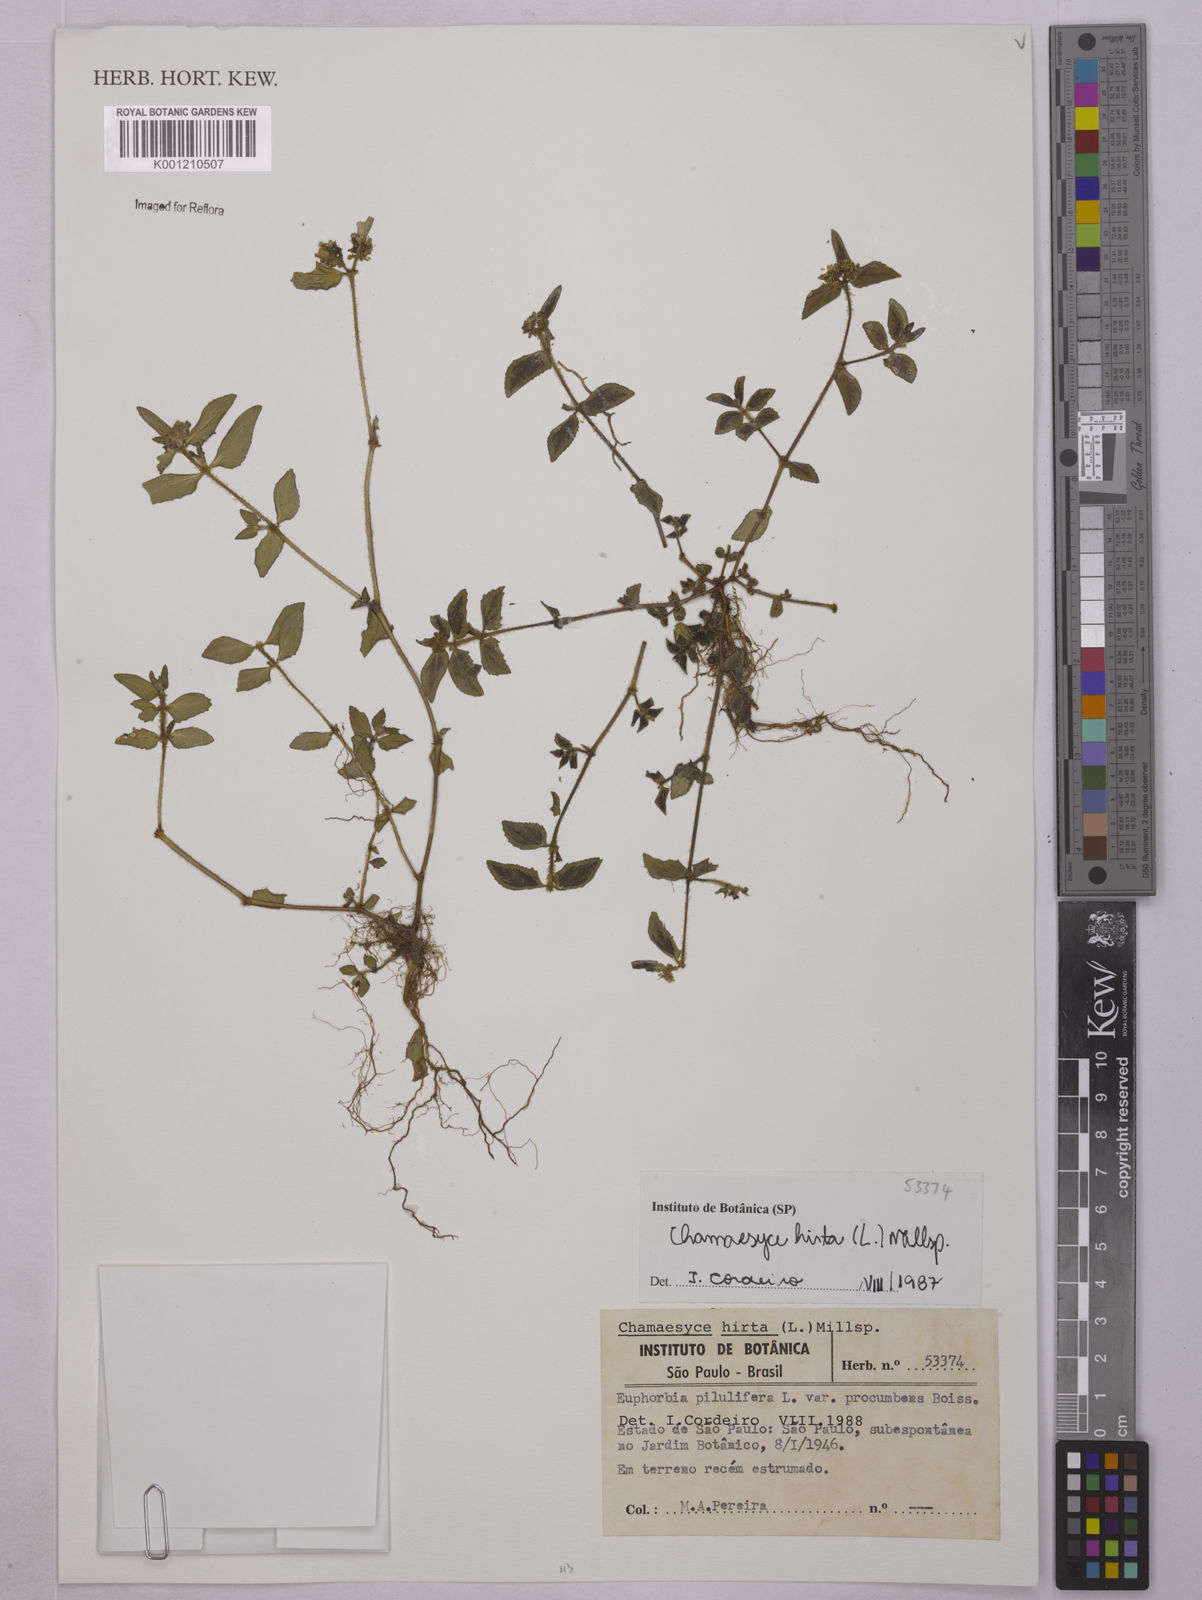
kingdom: Plantae
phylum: Tracheophyta
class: Magnoliopsida
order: Malpighiales
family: Euphorbiaceae
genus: Euphorbia
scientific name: Euphorbia hirta
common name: Pillpod sandmat
